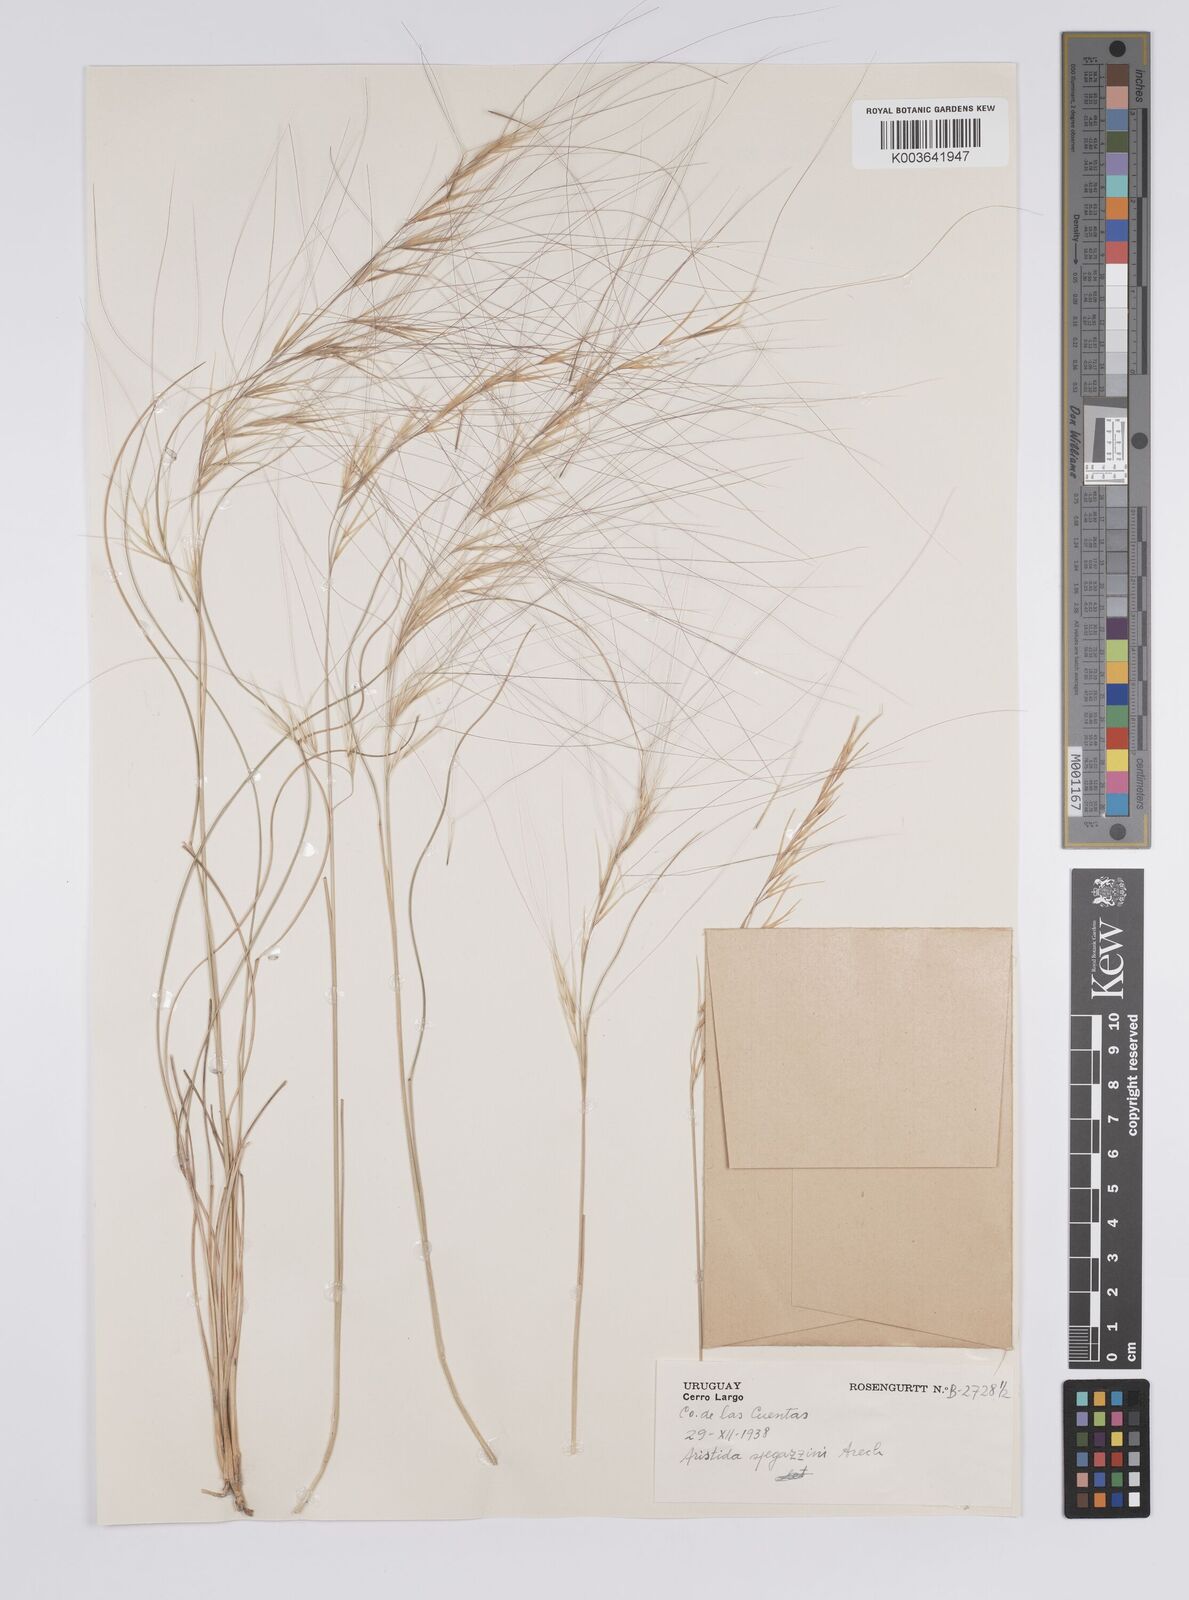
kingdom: Plantae
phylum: Tracheophyta
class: Liliopsida
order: Poales
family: Poaceae
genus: Aristida
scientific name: Aristida spegazzinii
